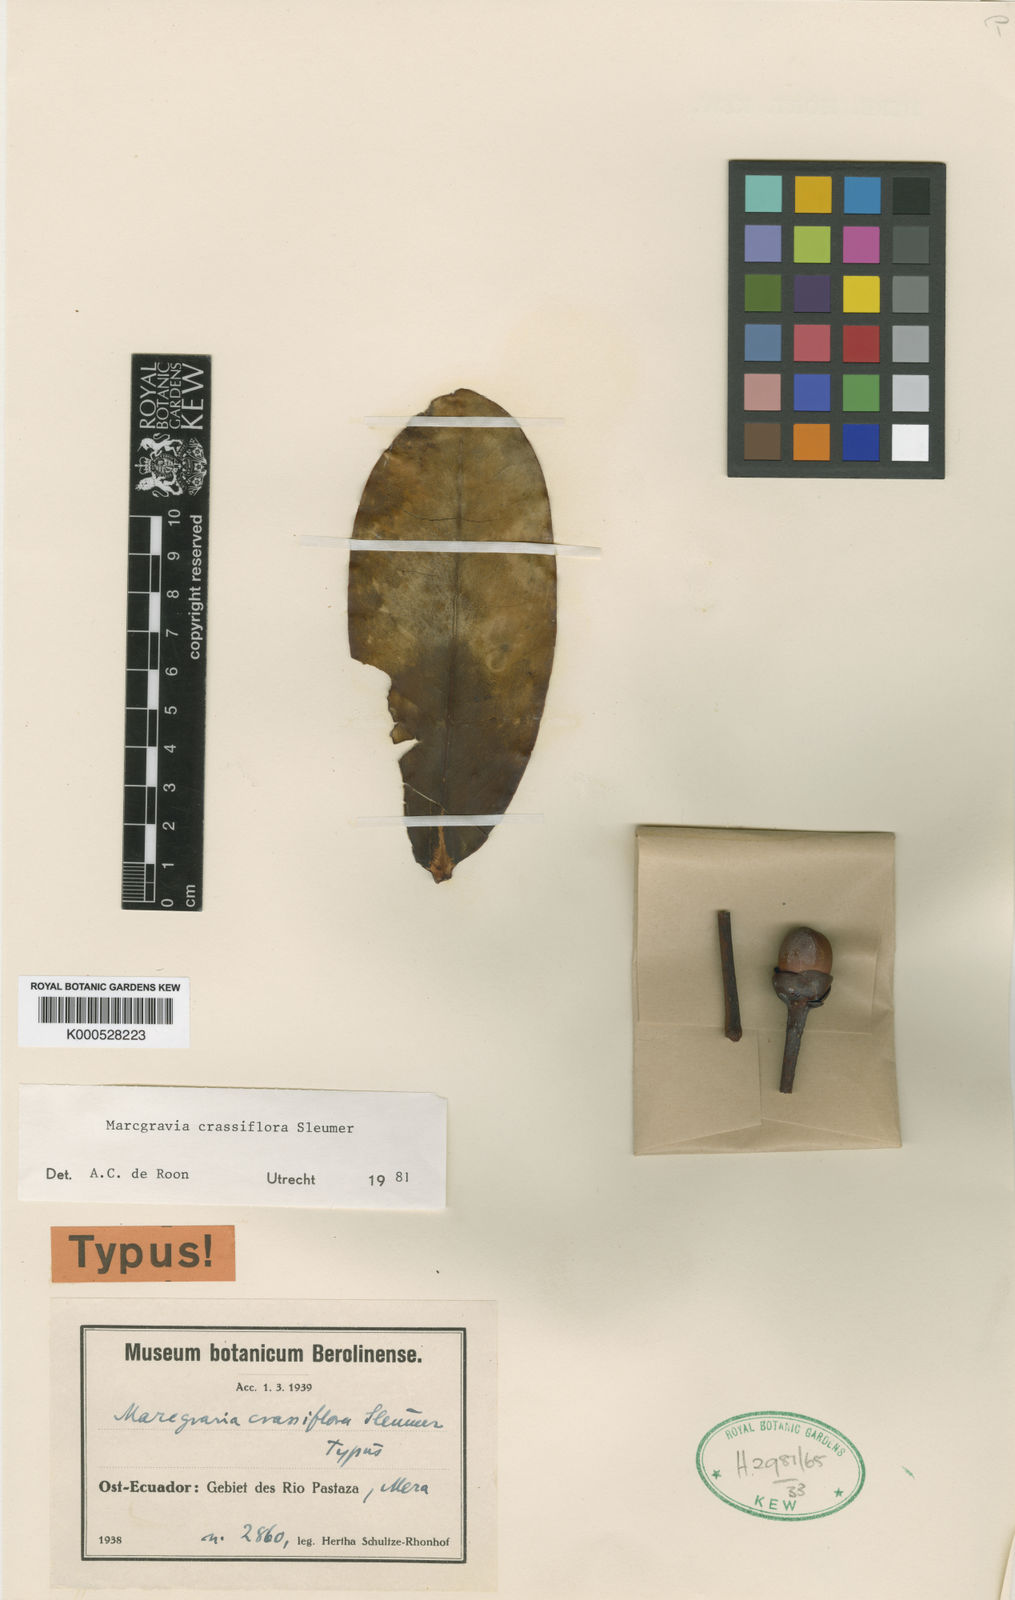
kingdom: Plantae
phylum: Tracheophyta
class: Magnoliopsida
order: Ericales
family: Marcgraviaceae
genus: Marcgravia
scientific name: Marcgravia crassiflora
